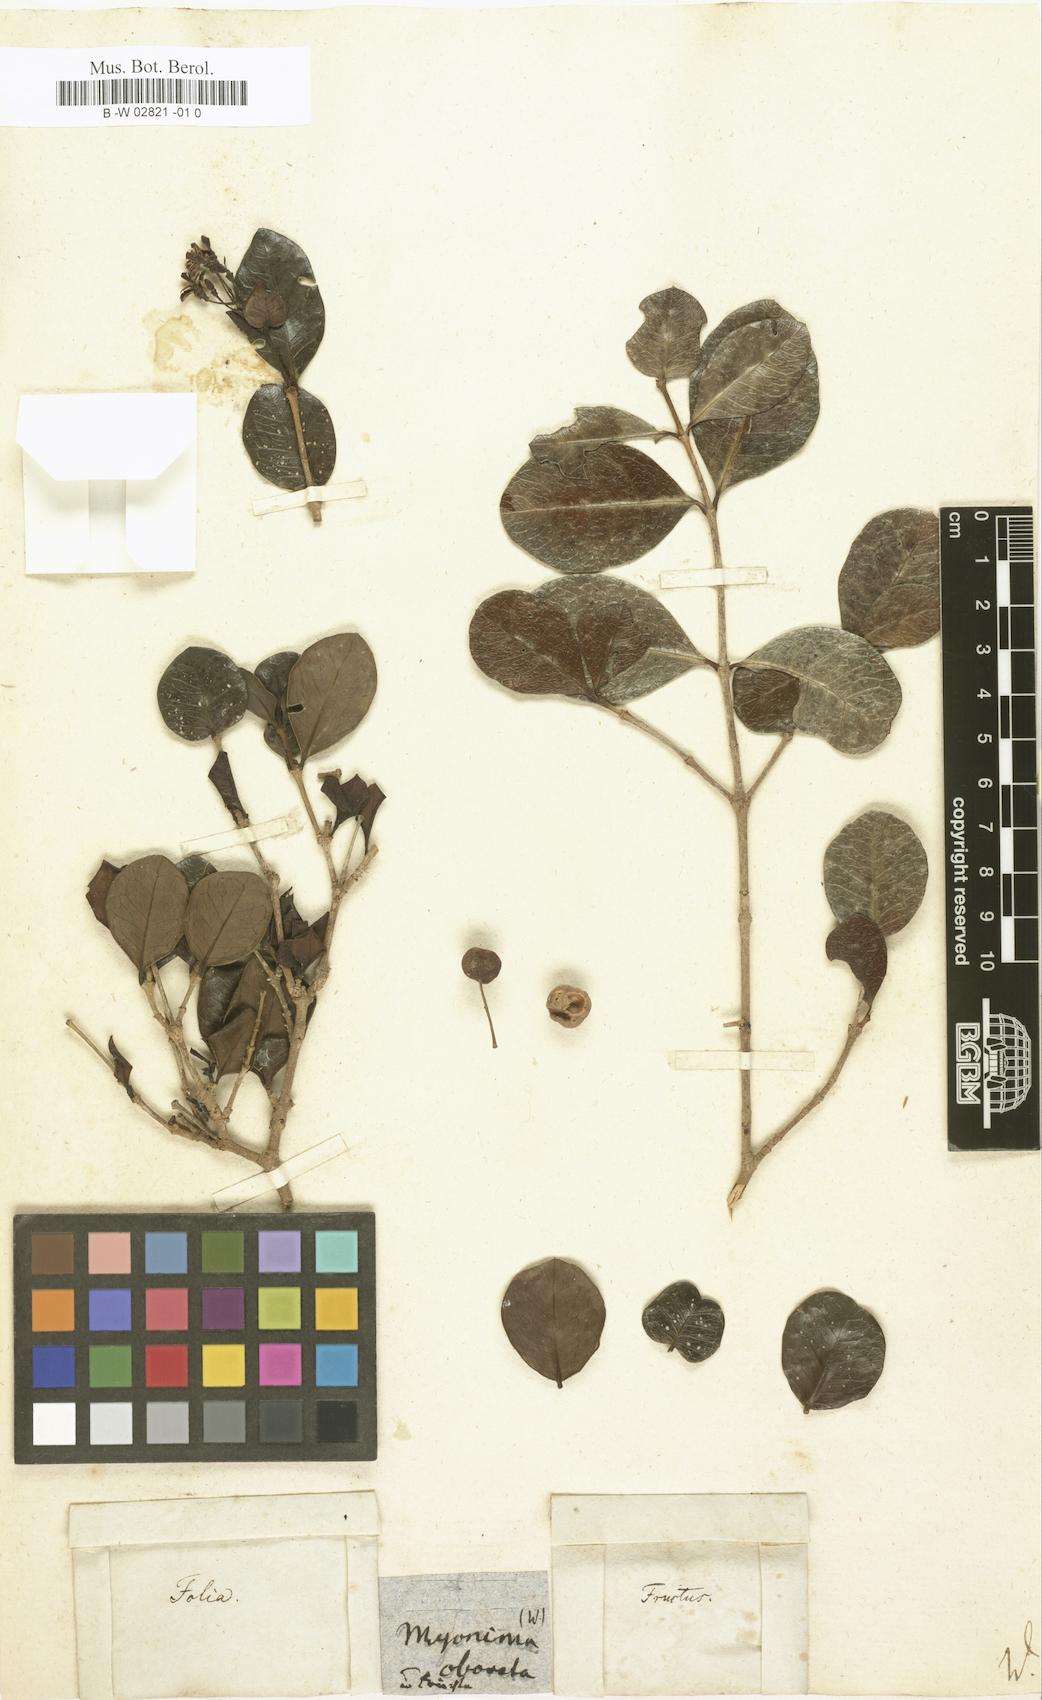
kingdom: Plantae
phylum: Tracheophyta
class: Magnoliopsida
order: Gentianales
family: Rubiaceae
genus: Ixora
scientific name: Ixora borboniae
